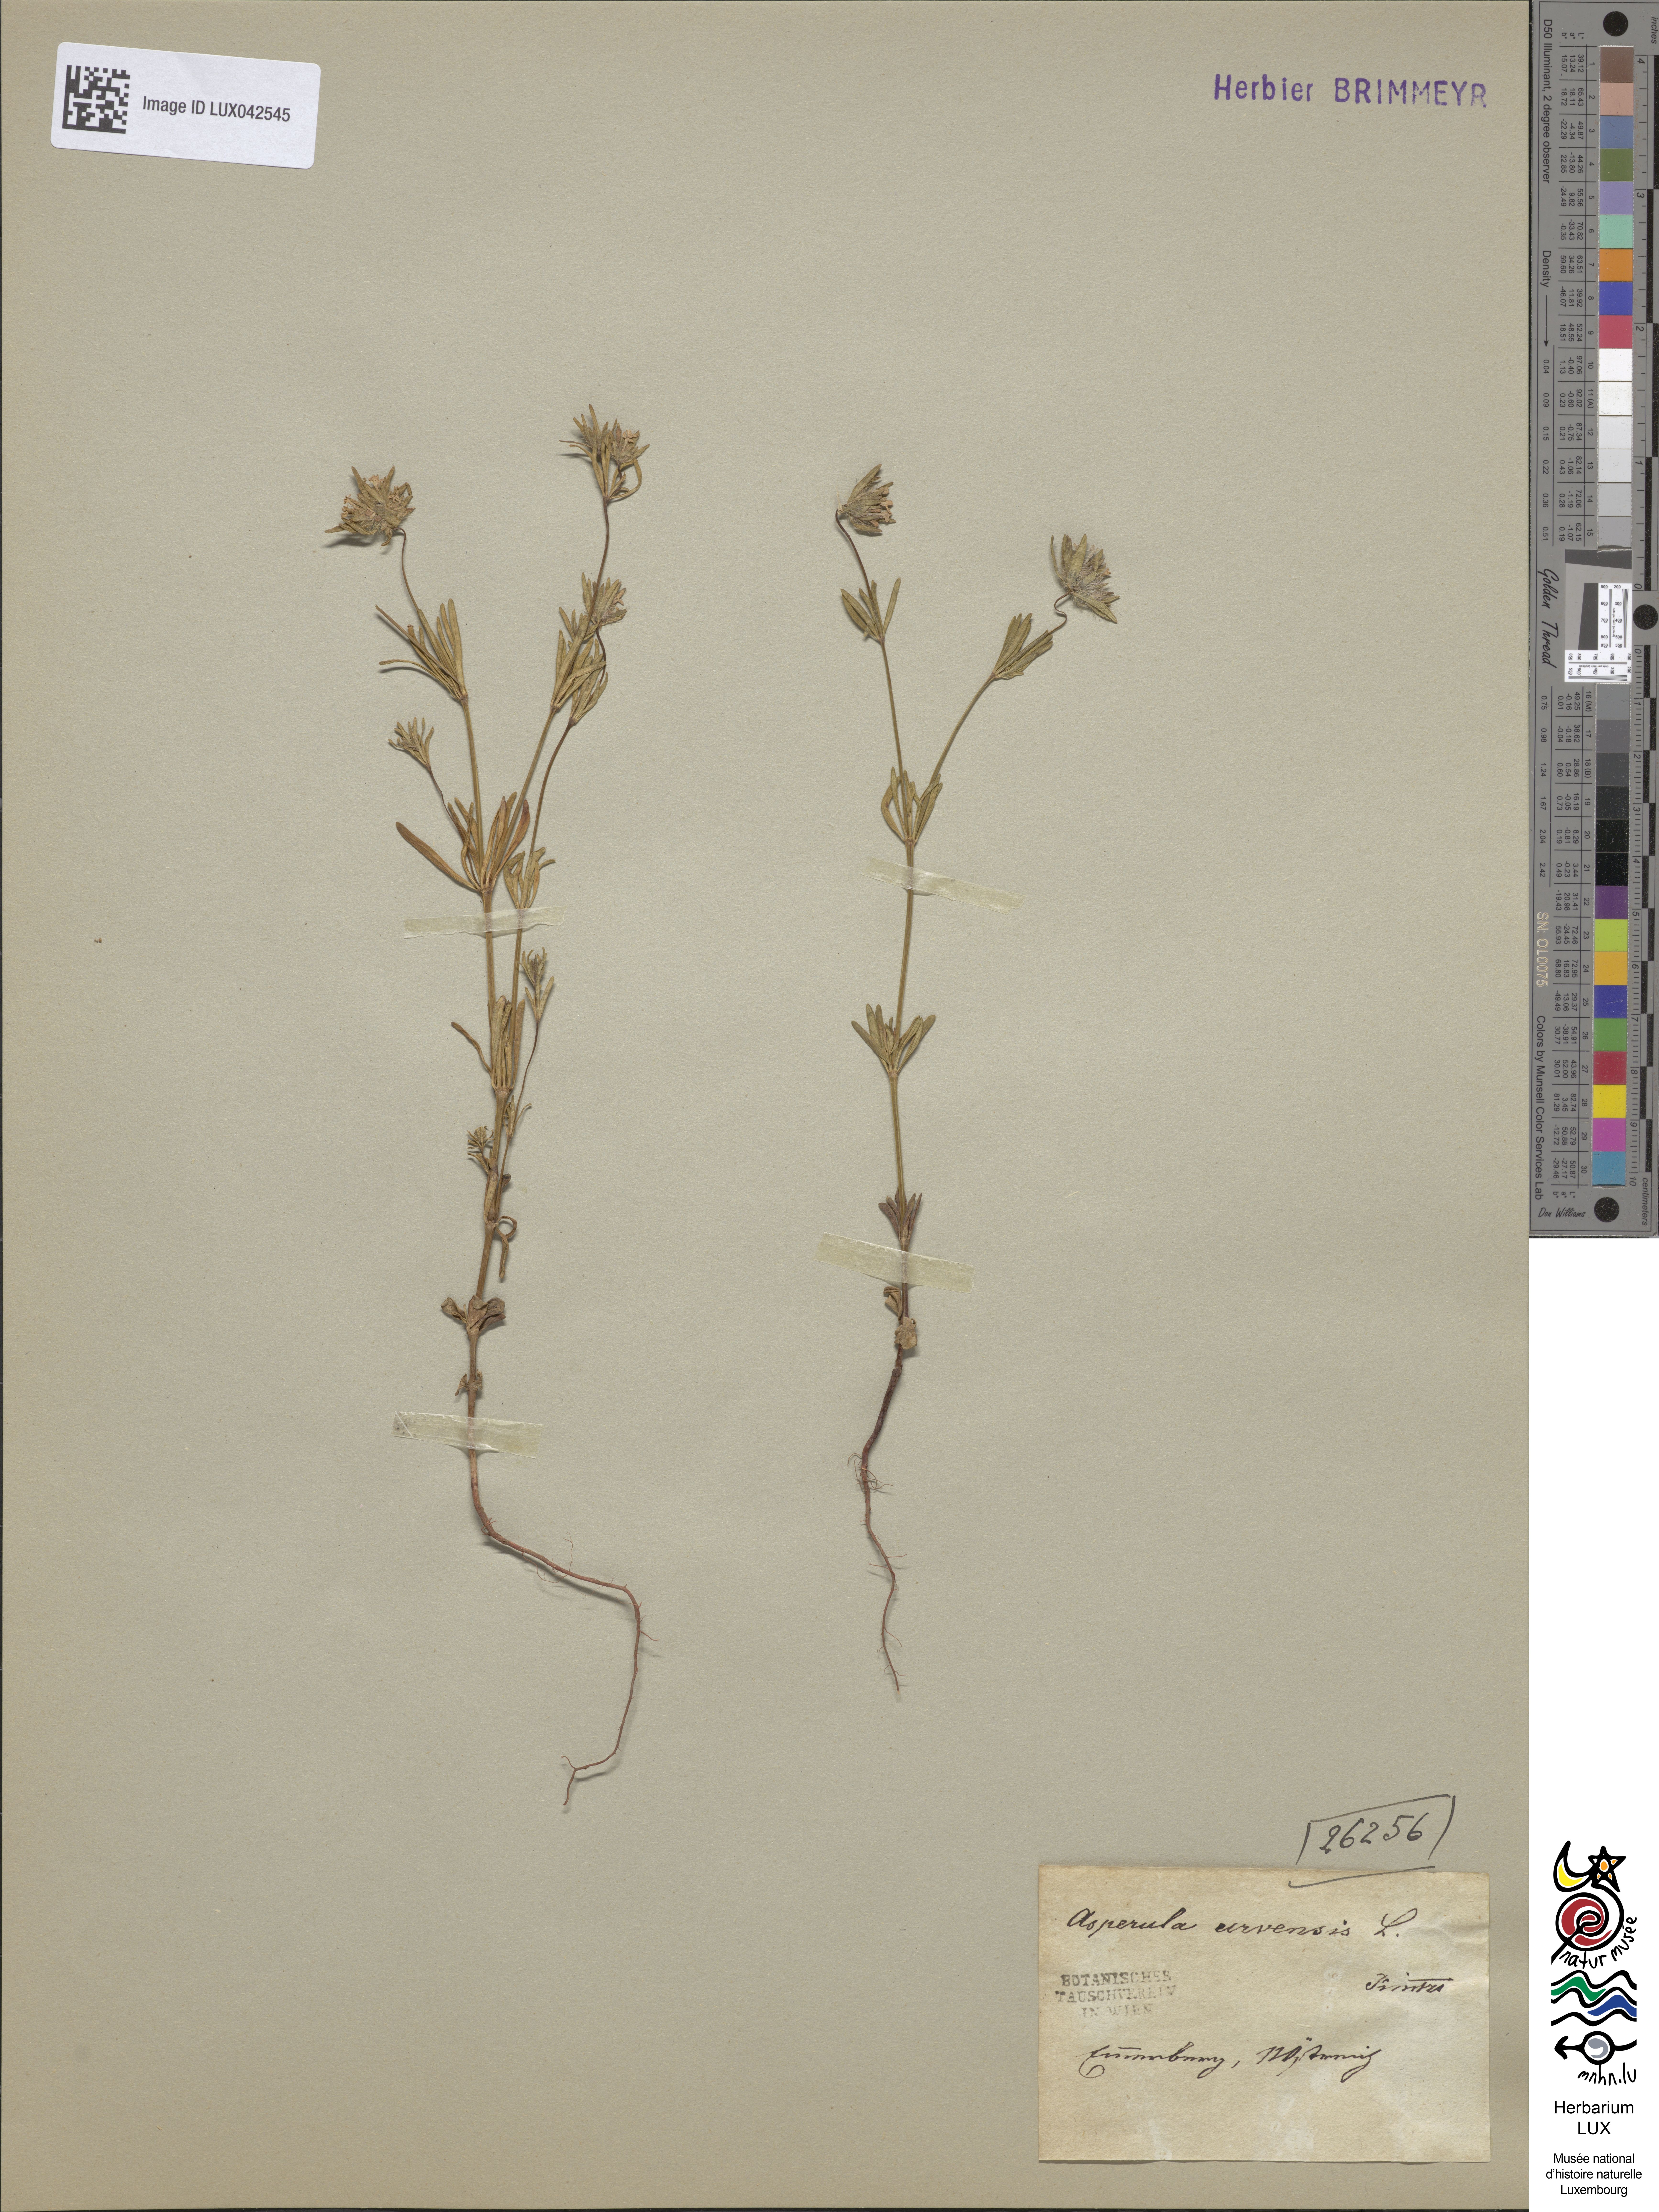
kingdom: Plantae
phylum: Tracheophyta
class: Magnoliopsida
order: Gentianales
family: Rubiaceae
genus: Asperula
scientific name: Asperula arvensis
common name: Blue woodruff
